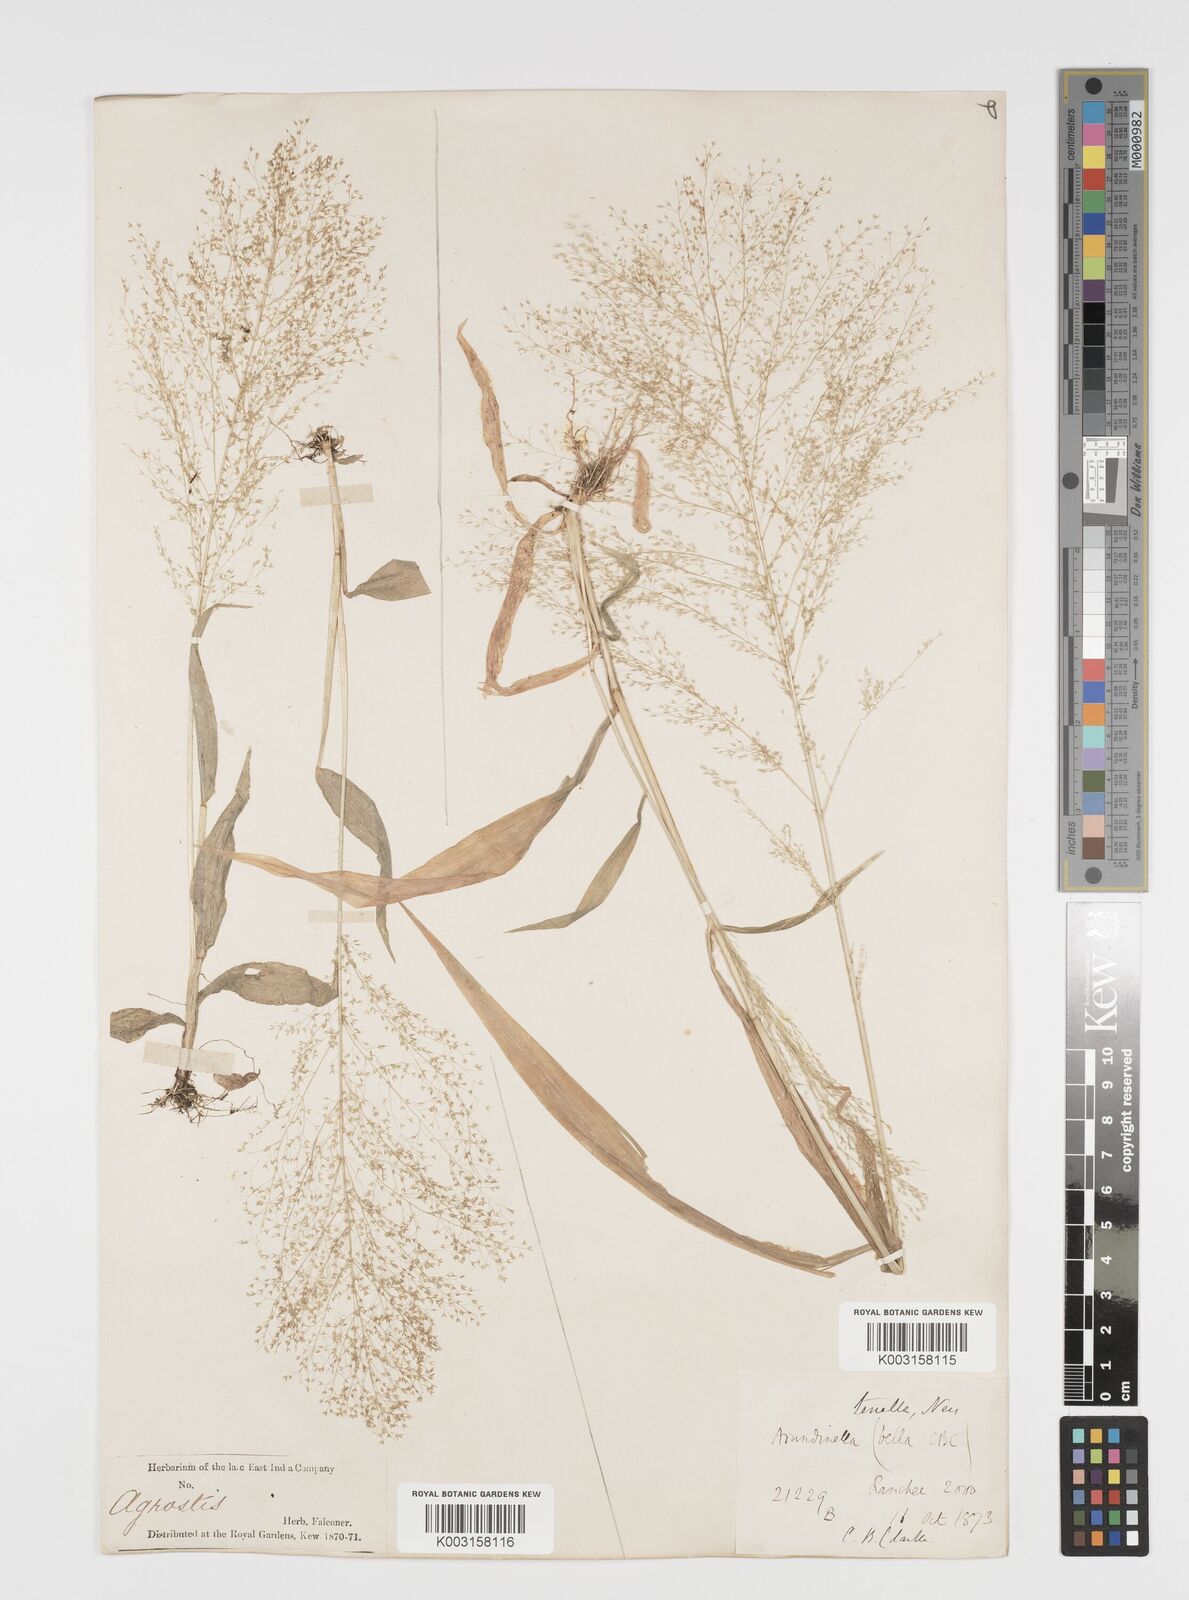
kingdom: Plantae
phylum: Tracheophyta
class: Liliopsida
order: Poales
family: Poaceae
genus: Arundinella
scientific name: Arundinella pumila
